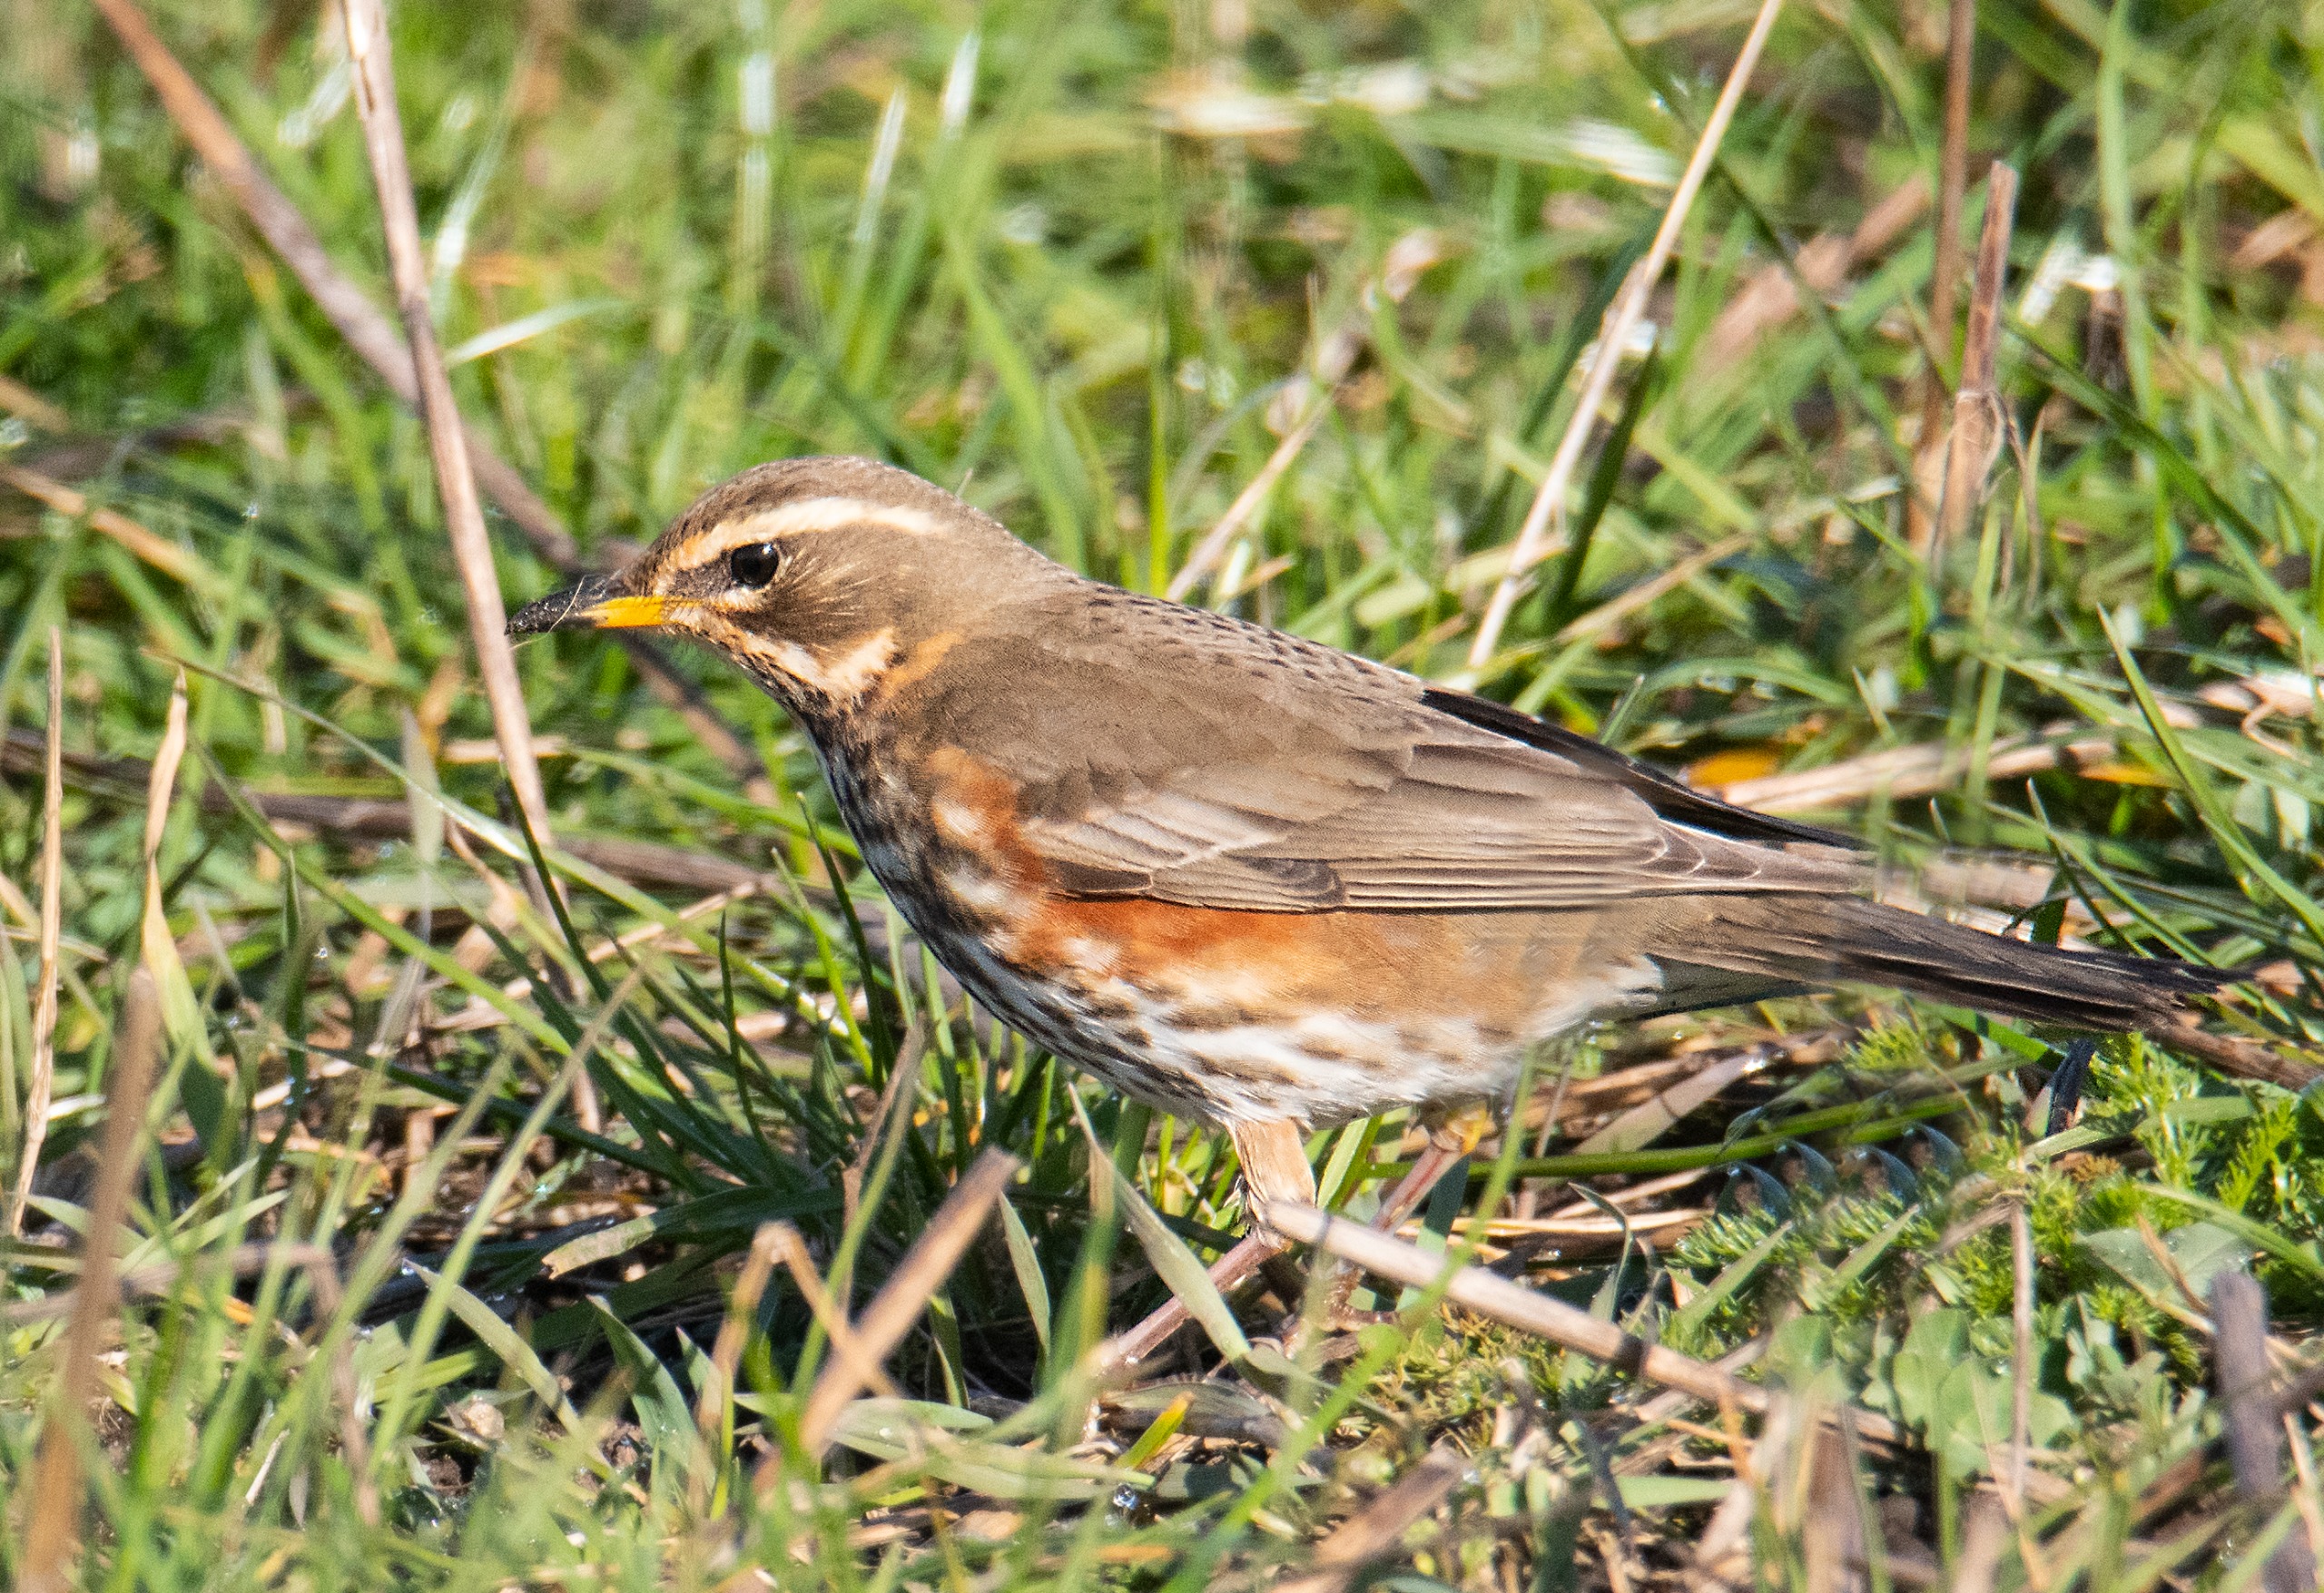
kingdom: Animalia
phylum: Chordata
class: Aves
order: Passeriformes
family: Turdidae
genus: Turdus
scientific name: Turdus iliacus
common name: Vindrossel
